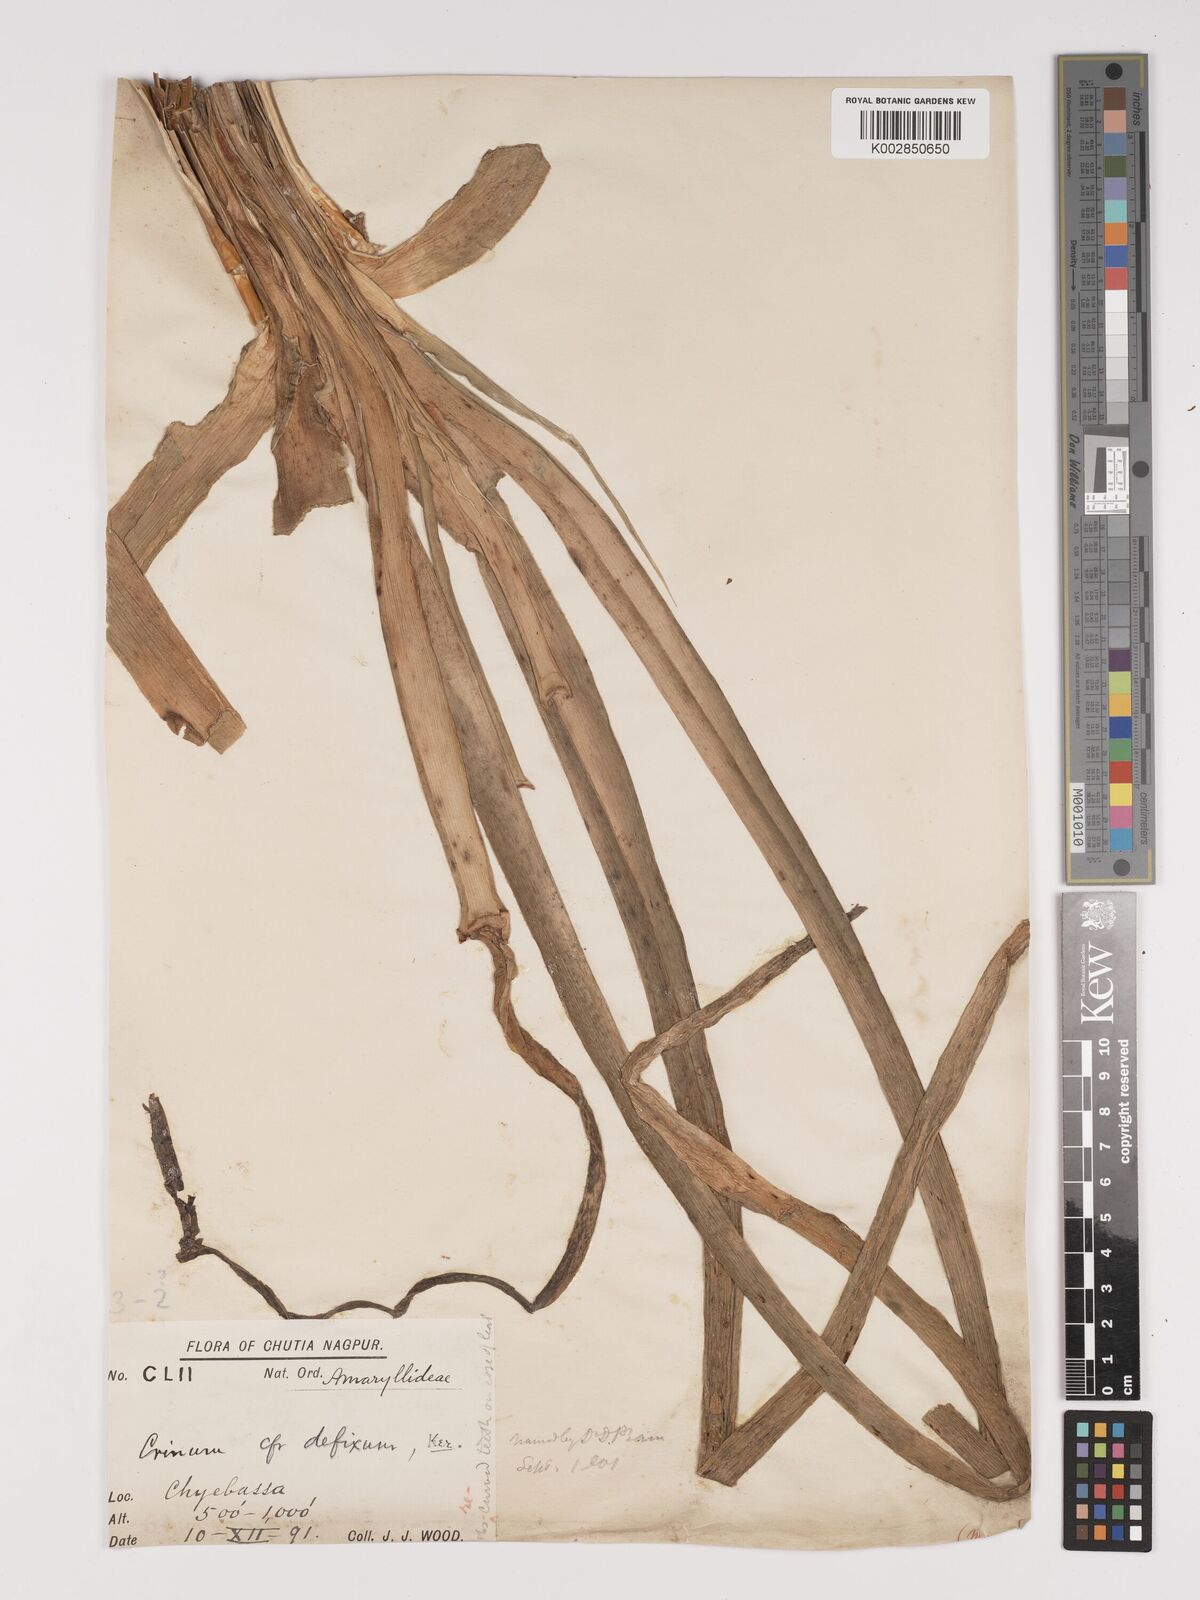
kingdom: Plantae
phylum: Tracheophyta
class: Liliopsida
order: Asparagales
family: Amaryllidaceae
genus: Crinum
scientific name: Crinum
